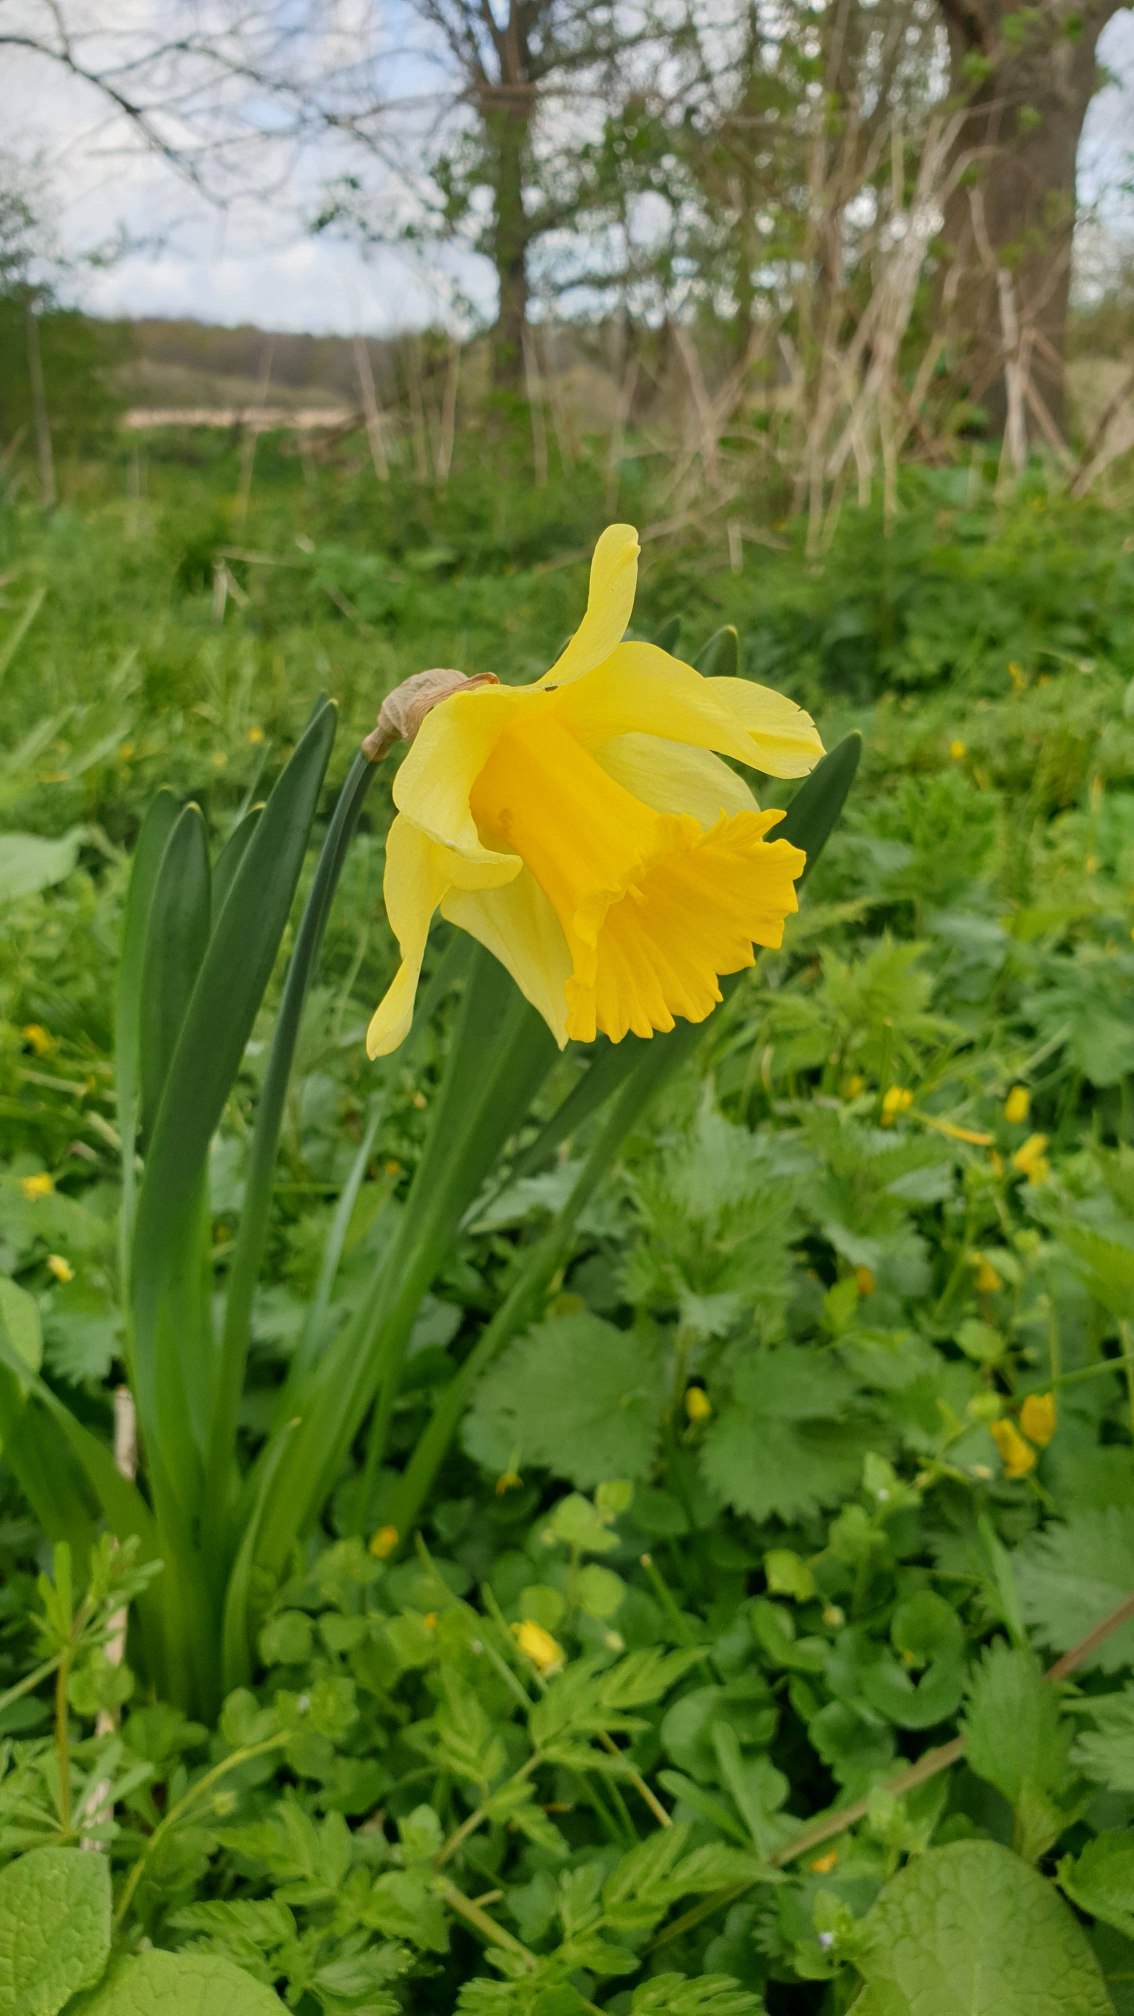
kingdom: Plantae
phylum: Tracheophyta
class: Liliopsida
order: Asparagales
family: Amaryllidaceae
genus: Narcissus
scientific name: Narcissus pseudonarcissus
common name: Påskelilje
